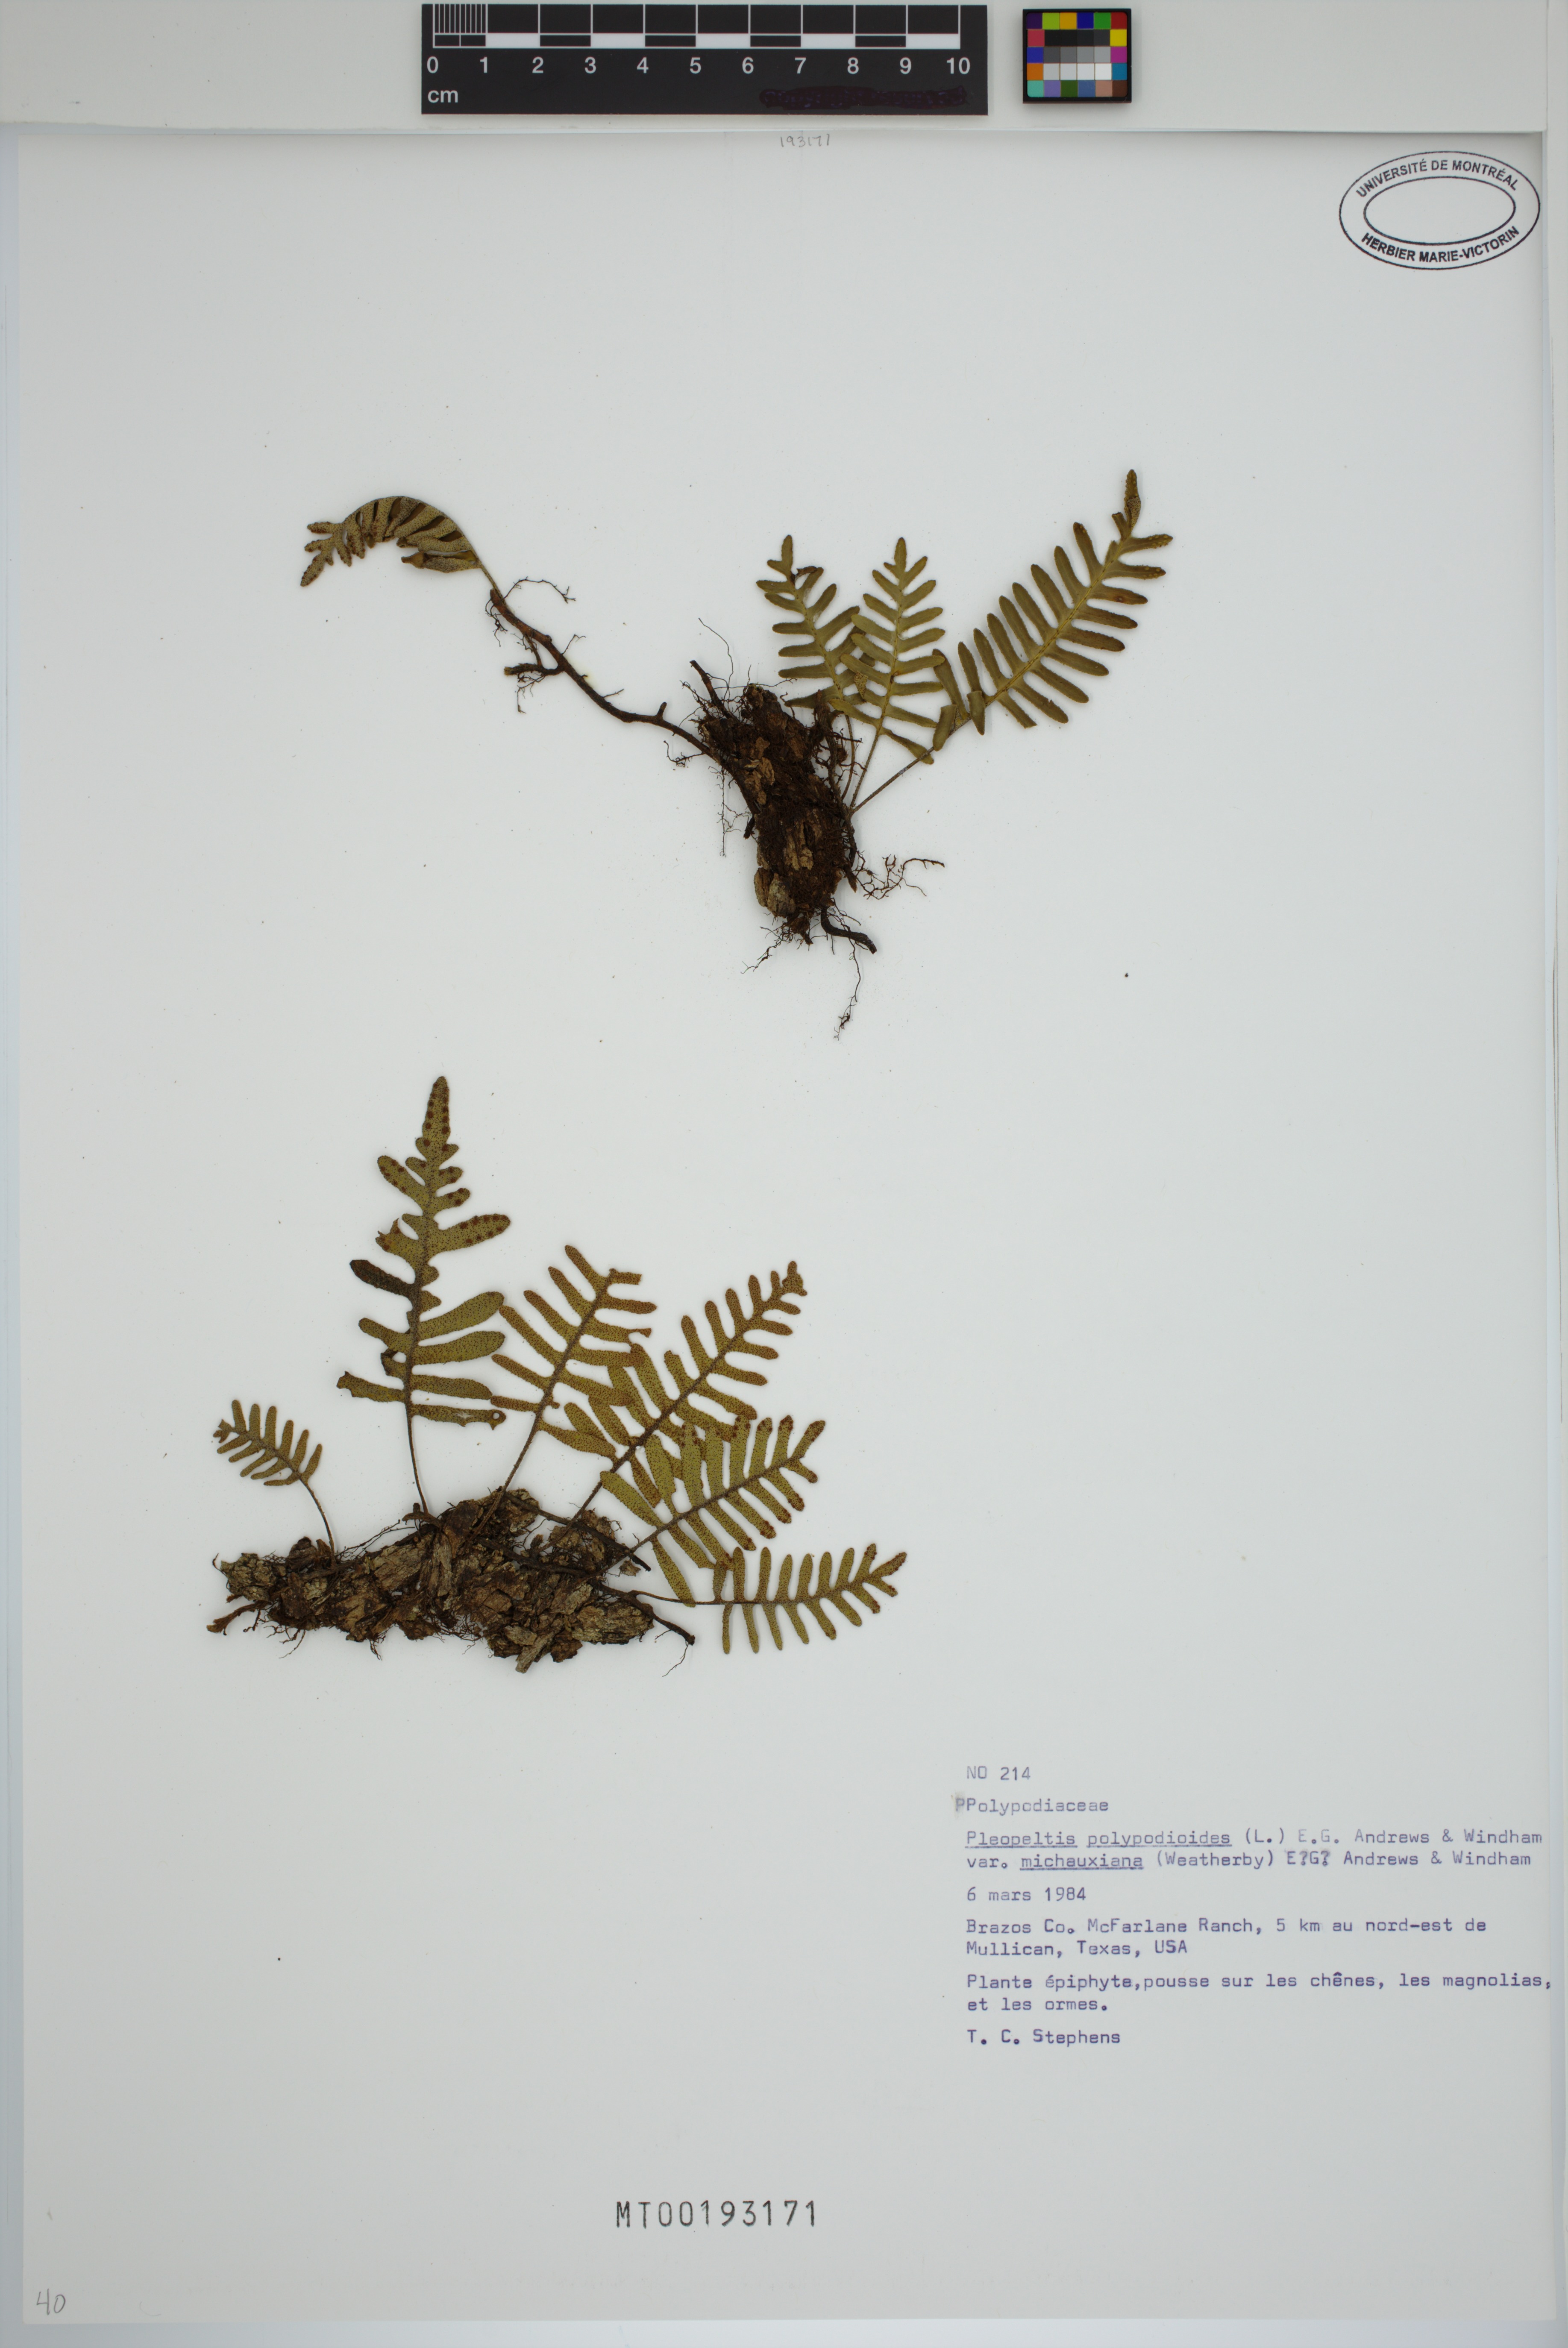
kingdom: Plantae
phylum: Tracheophyta
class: Polypodiopsida
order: Polypodiales
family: Polypodiaceae
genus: Pleopeltis
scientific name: Pleopeltis michauxiana
